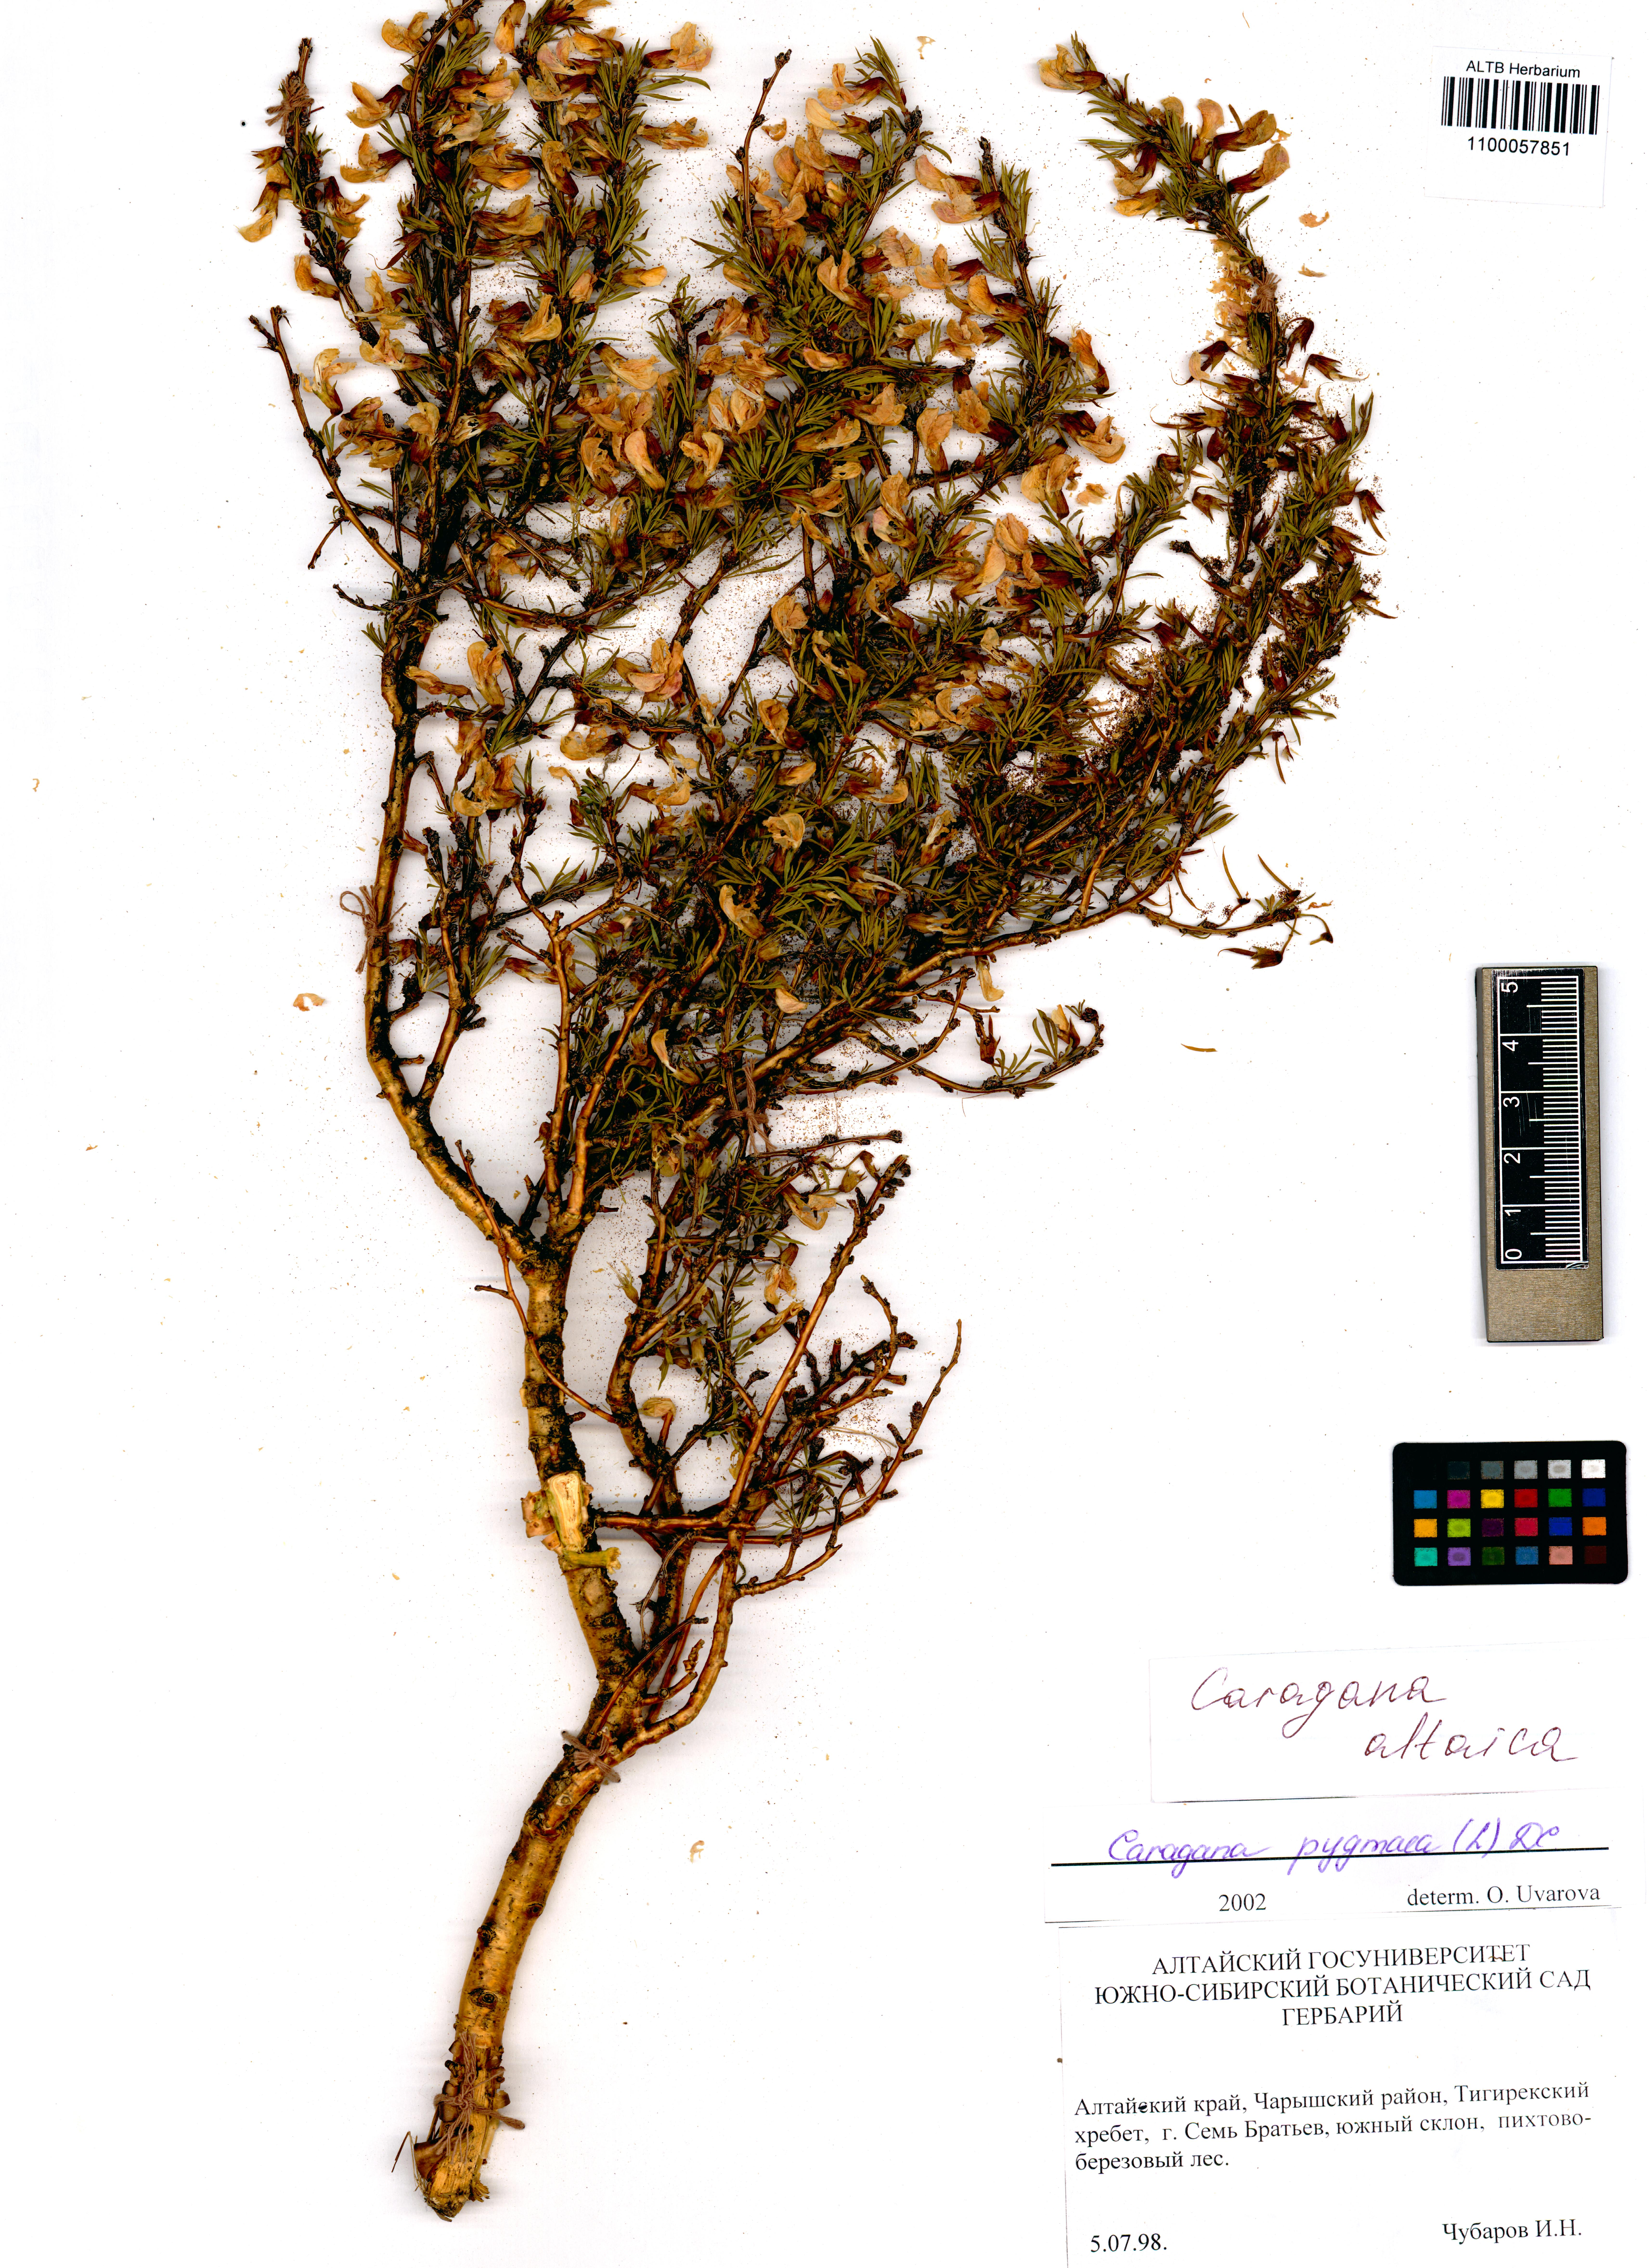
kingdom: Plantae
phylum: Tracheophyta
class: Magnoliopsida
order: Fabales
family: Fabaceae
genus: Caragana
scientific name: Caragana pygmaea
